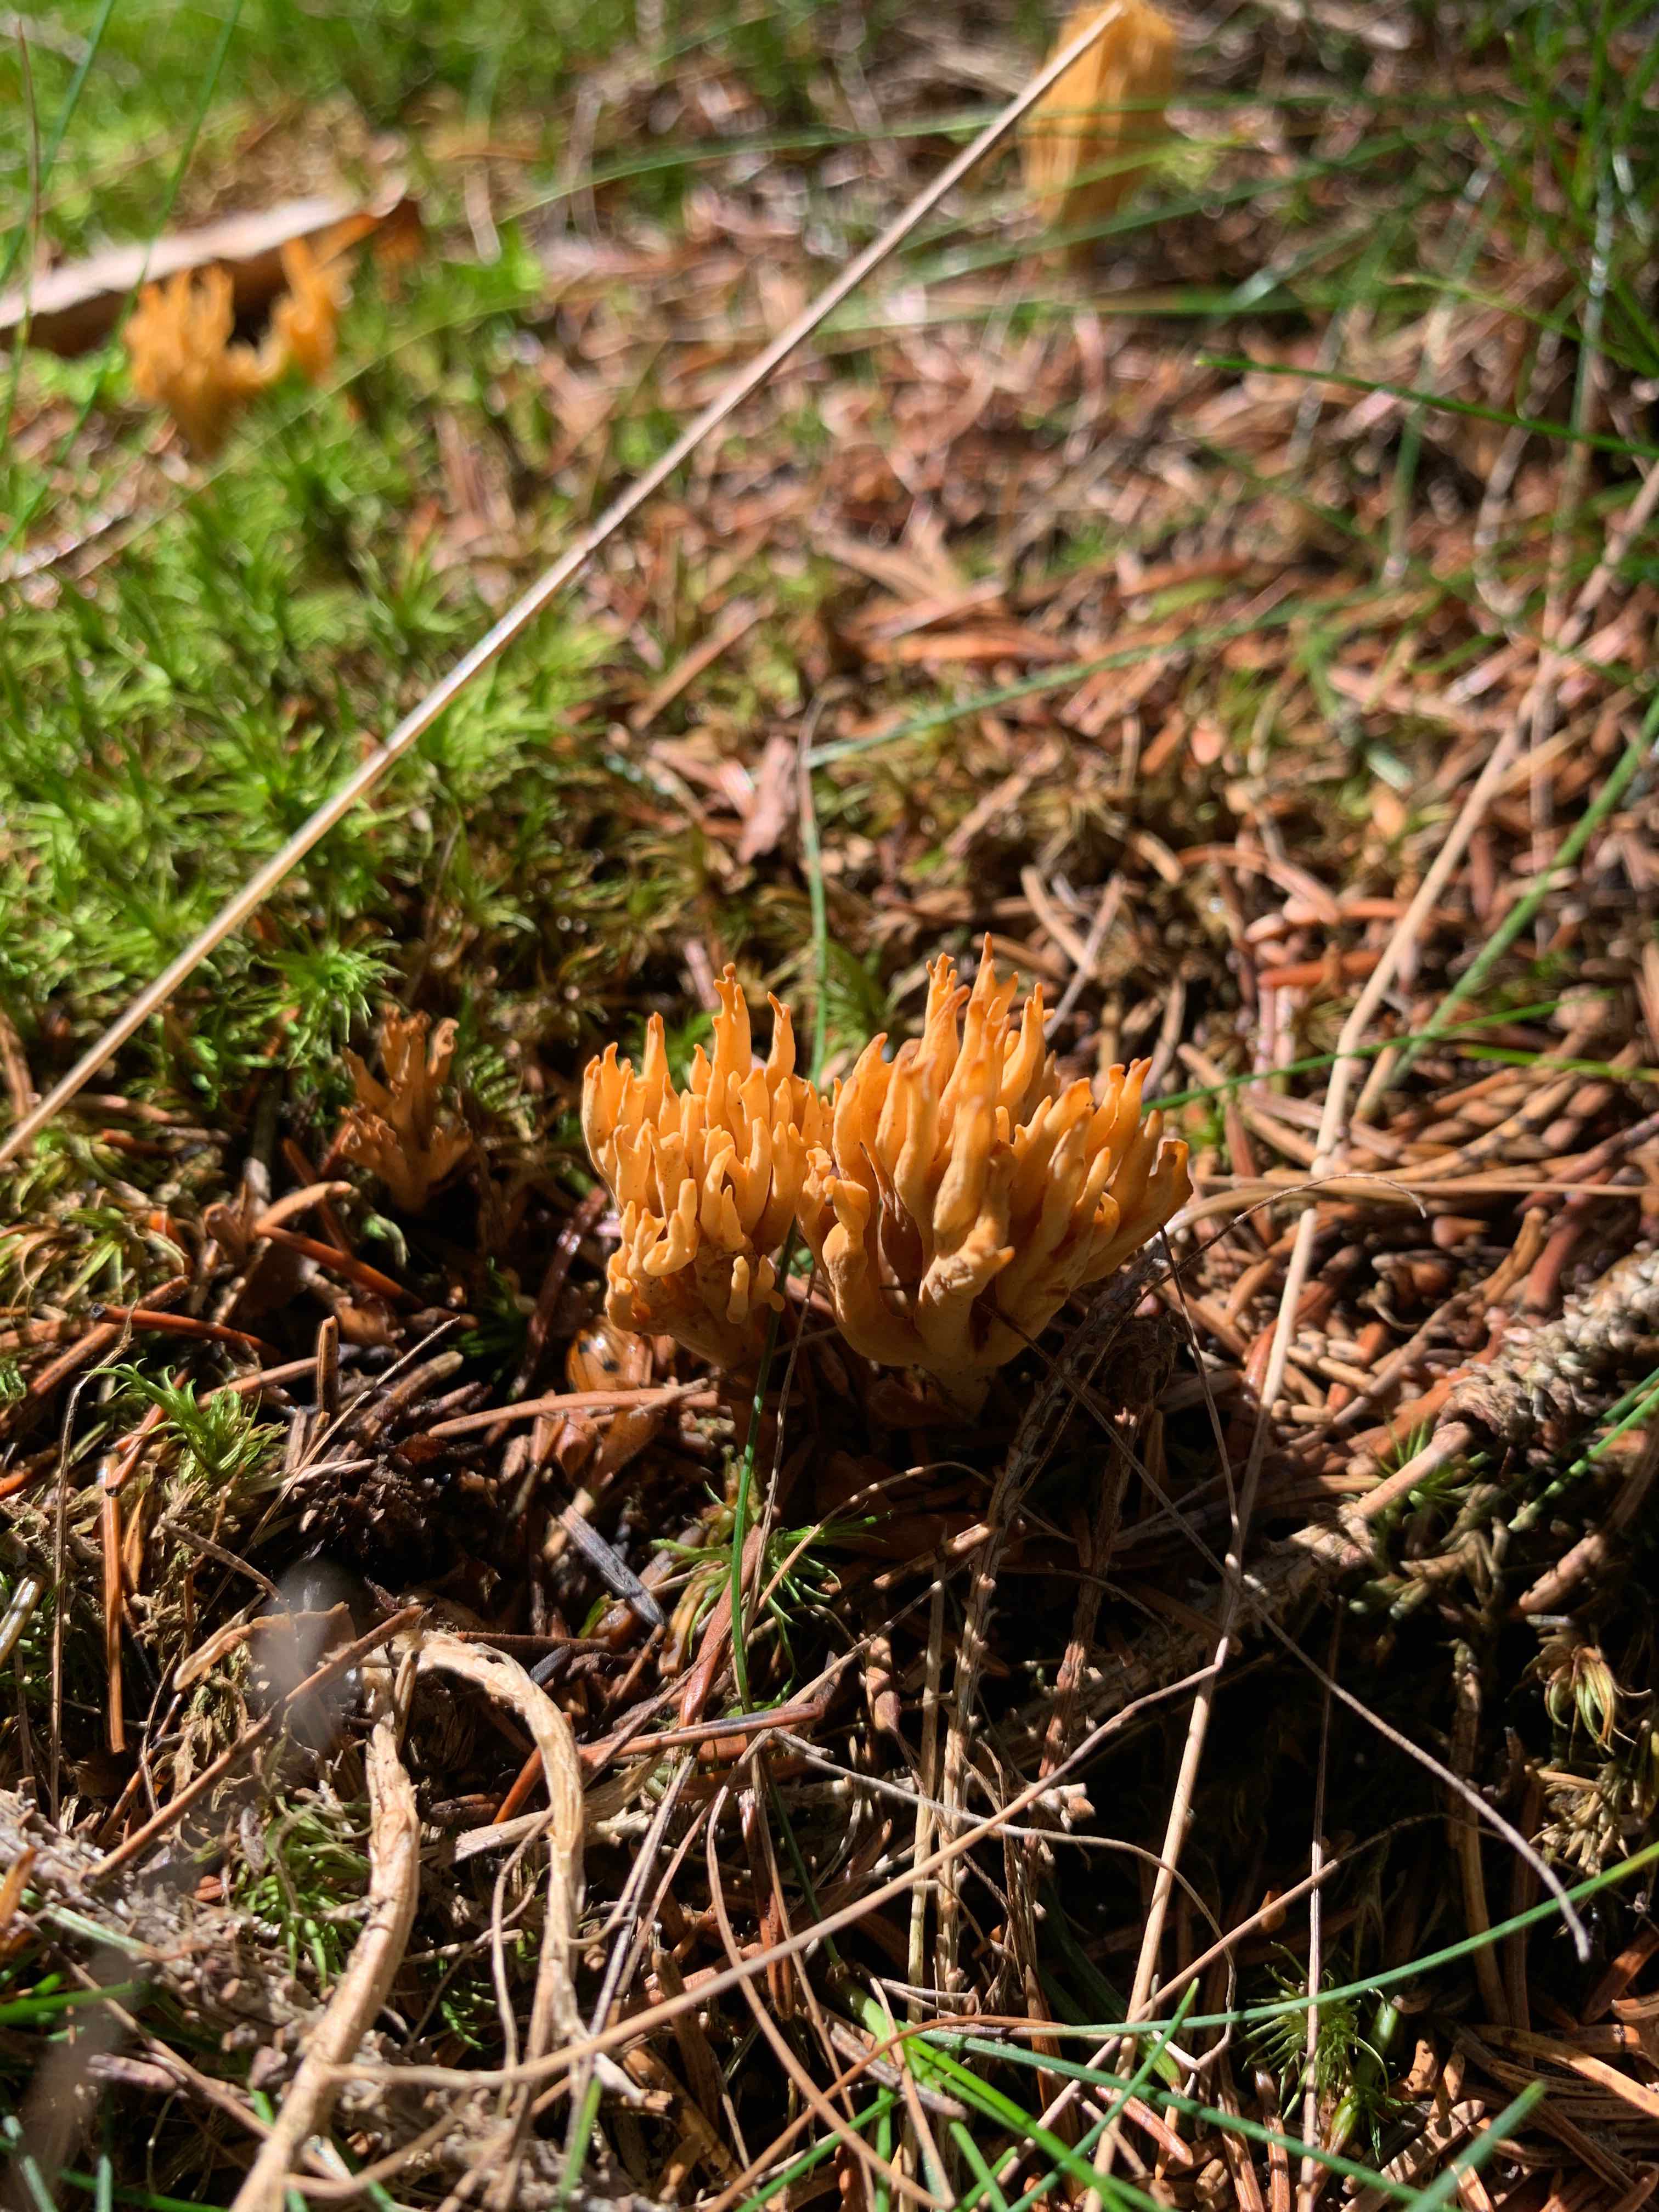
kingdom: Fungi
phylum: Basidiomycota
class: Agaricomycetes
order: Gomphales
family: Gomphaceae
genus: Phaeoclavulina
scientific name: Phaeoclavulina eumorpha
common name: gran-koralsvamp
